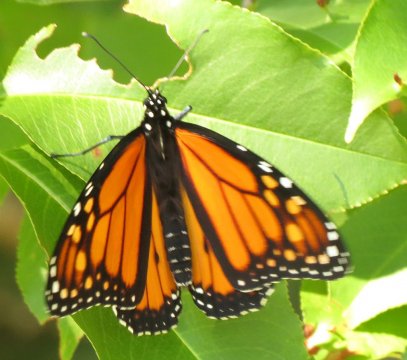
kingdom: Animalia
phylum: Arthropoda
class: Insecta
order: Lepidoptera
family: Nymphalidae
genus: Danaus
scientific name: Danaus plexippus
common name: Monarch
